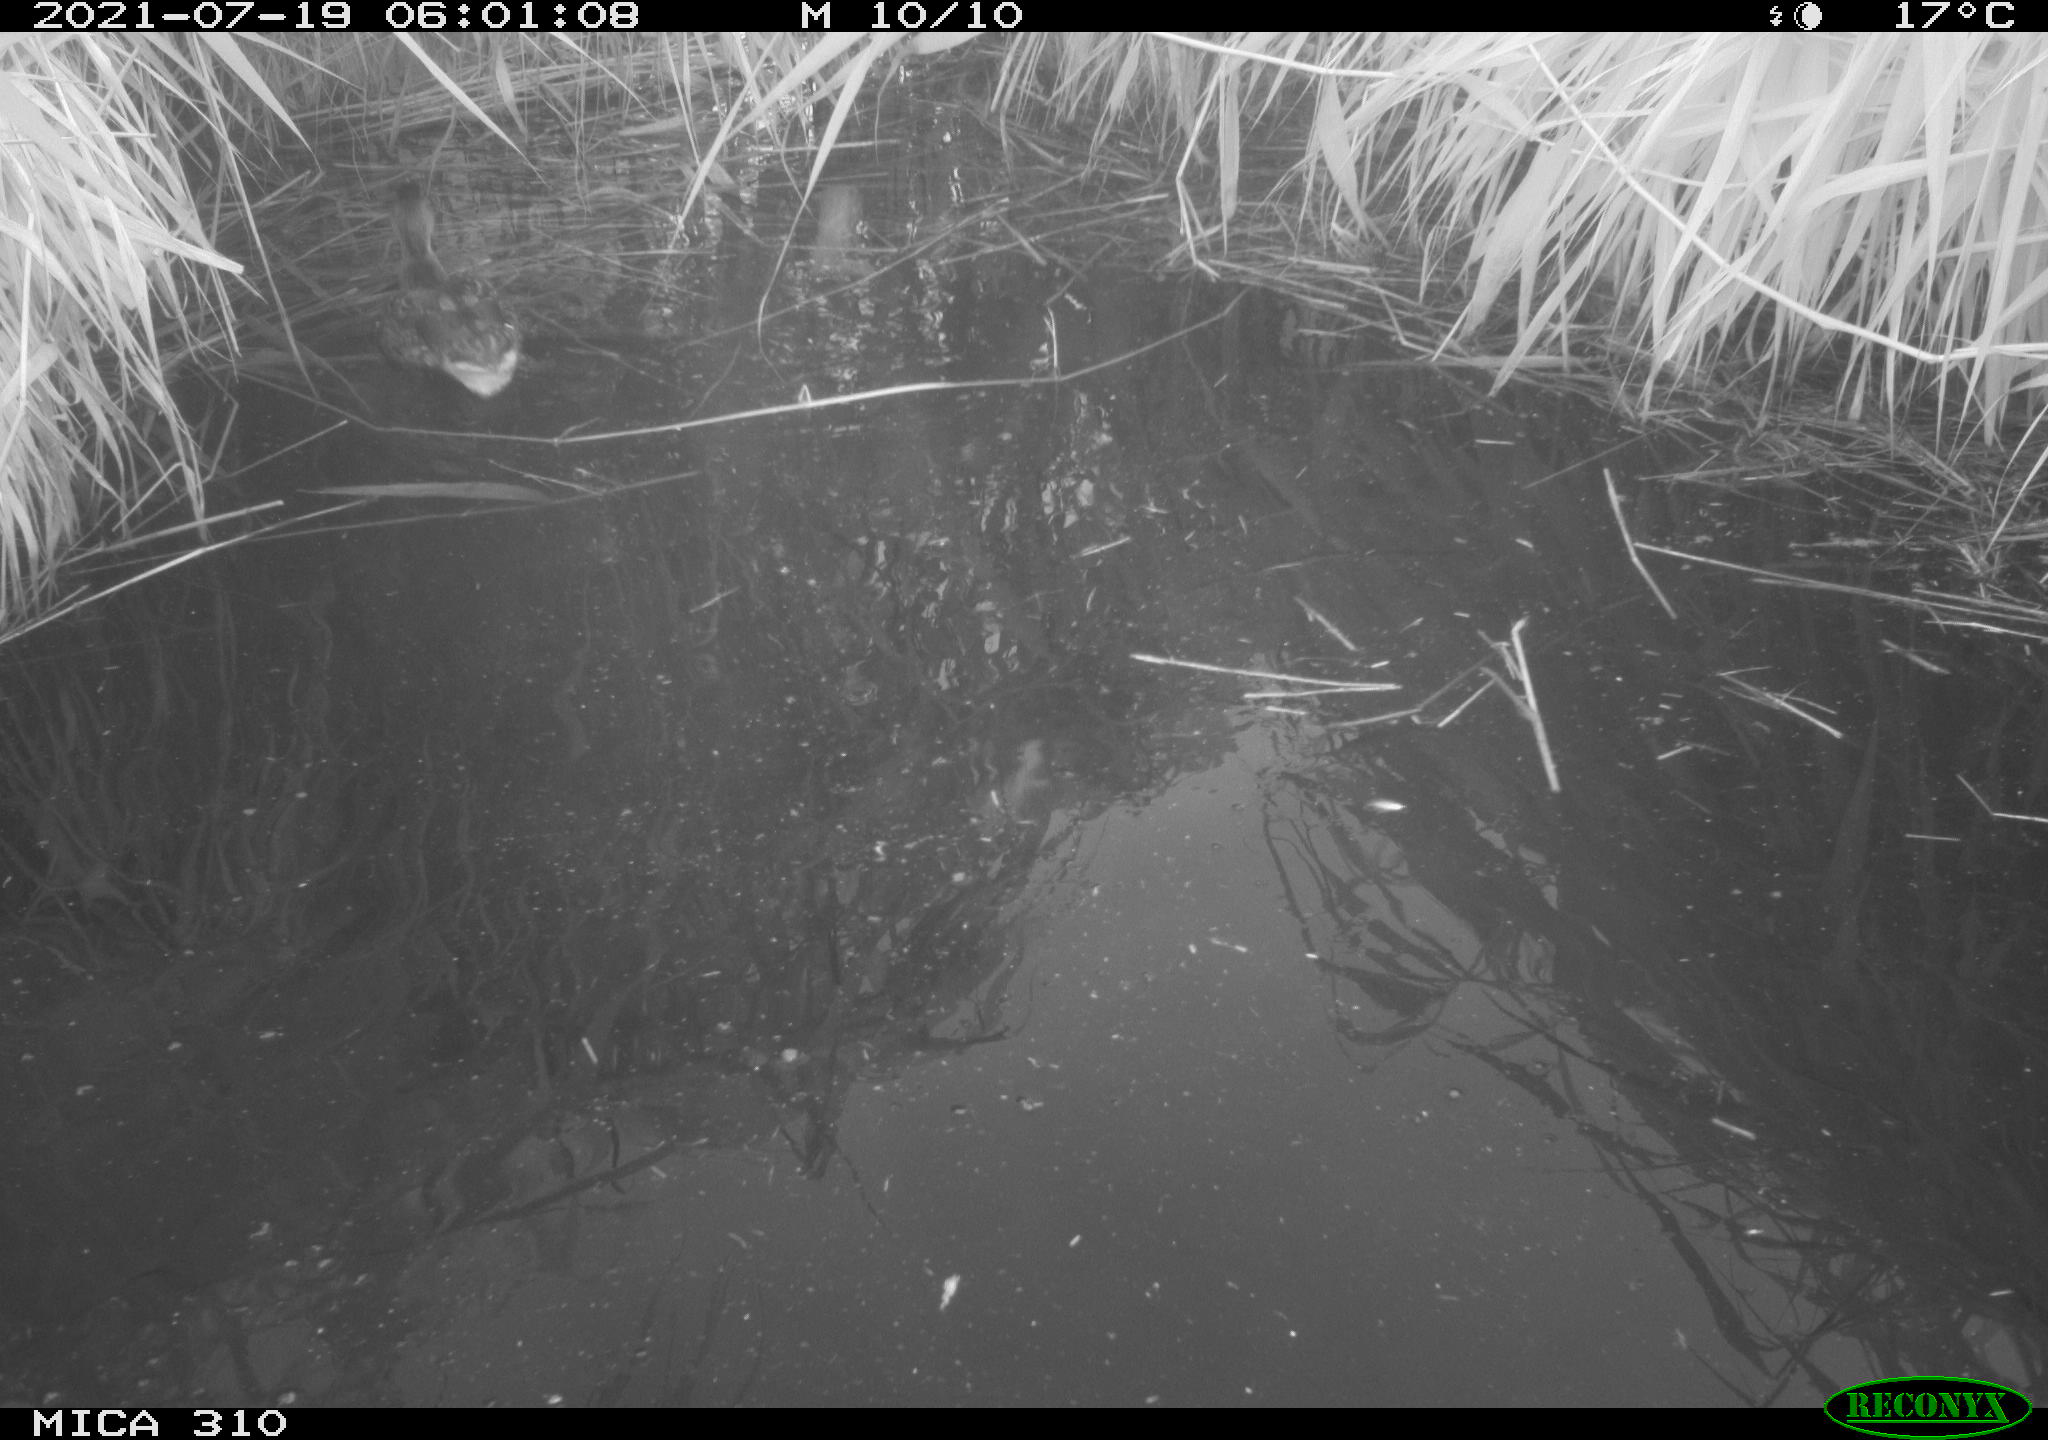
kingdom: Animalia
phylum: Chordata
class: Aves
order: Anseriformes
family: Anatidae
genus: Anas
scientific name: Anas platyrhynchos
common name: Mallard
